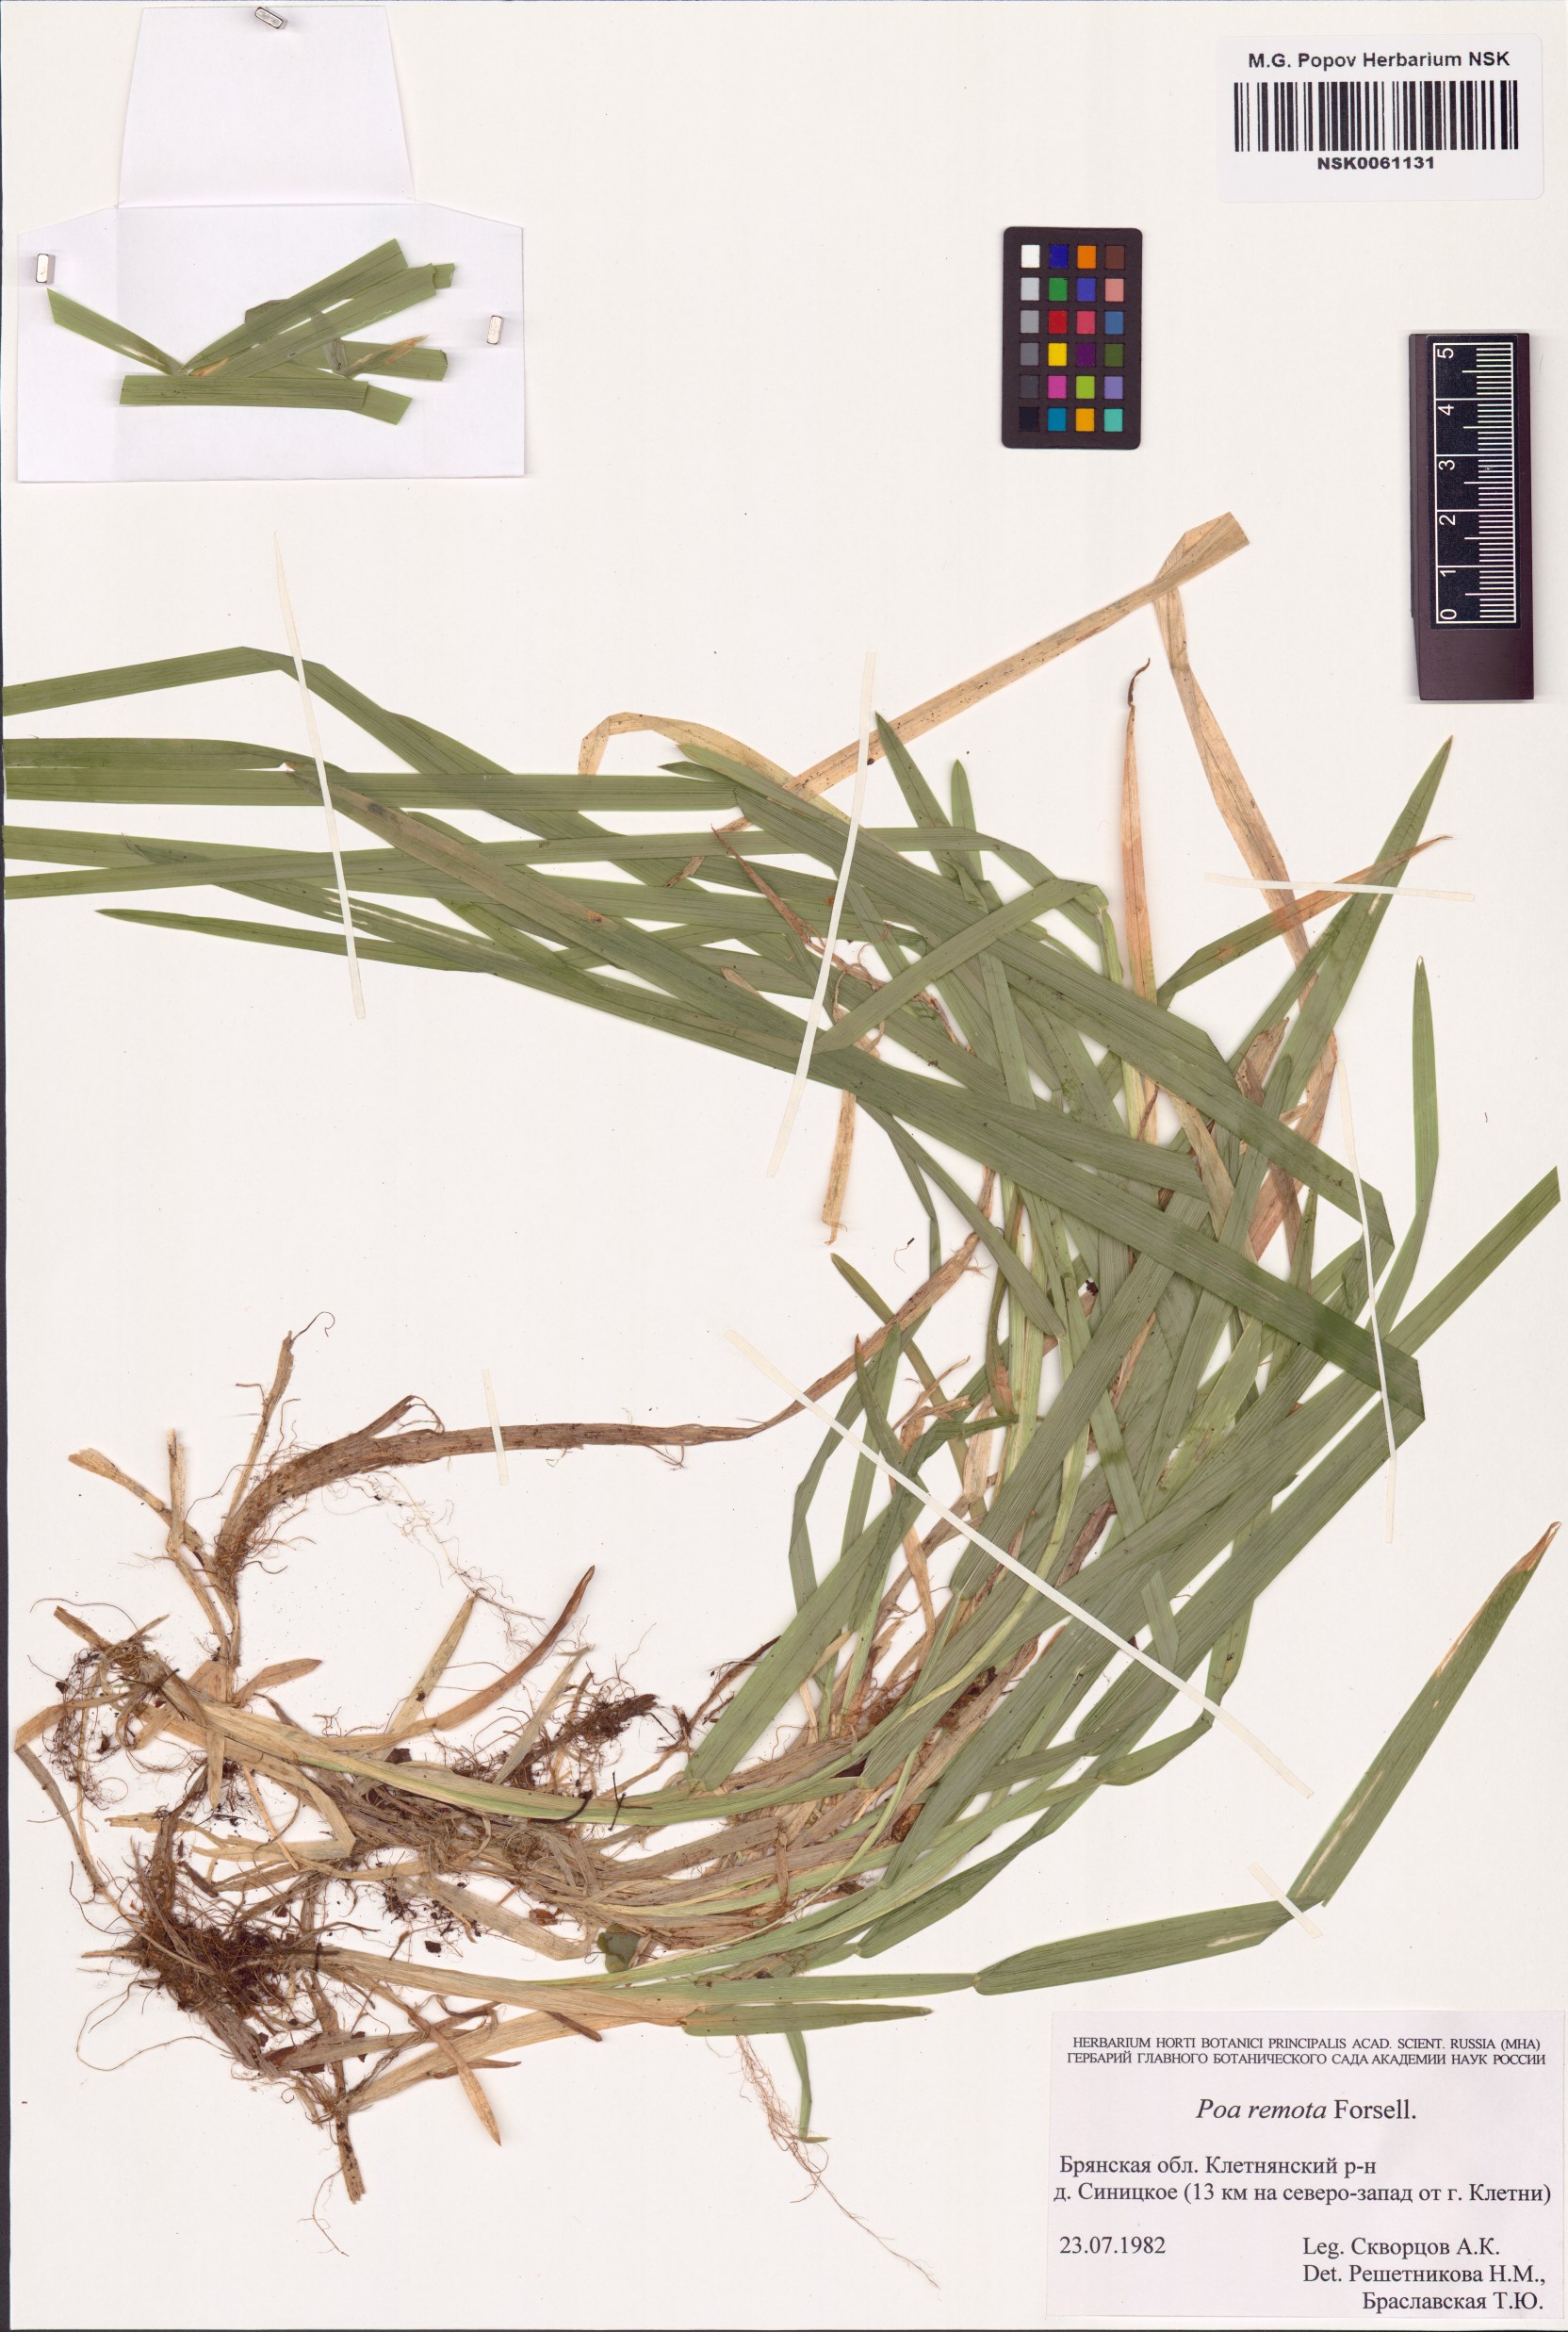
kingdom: Plantae
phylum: Tracheophyta
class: Liliopsida
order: Poales
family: Poaceae
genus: Poa
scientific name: Poa remota
